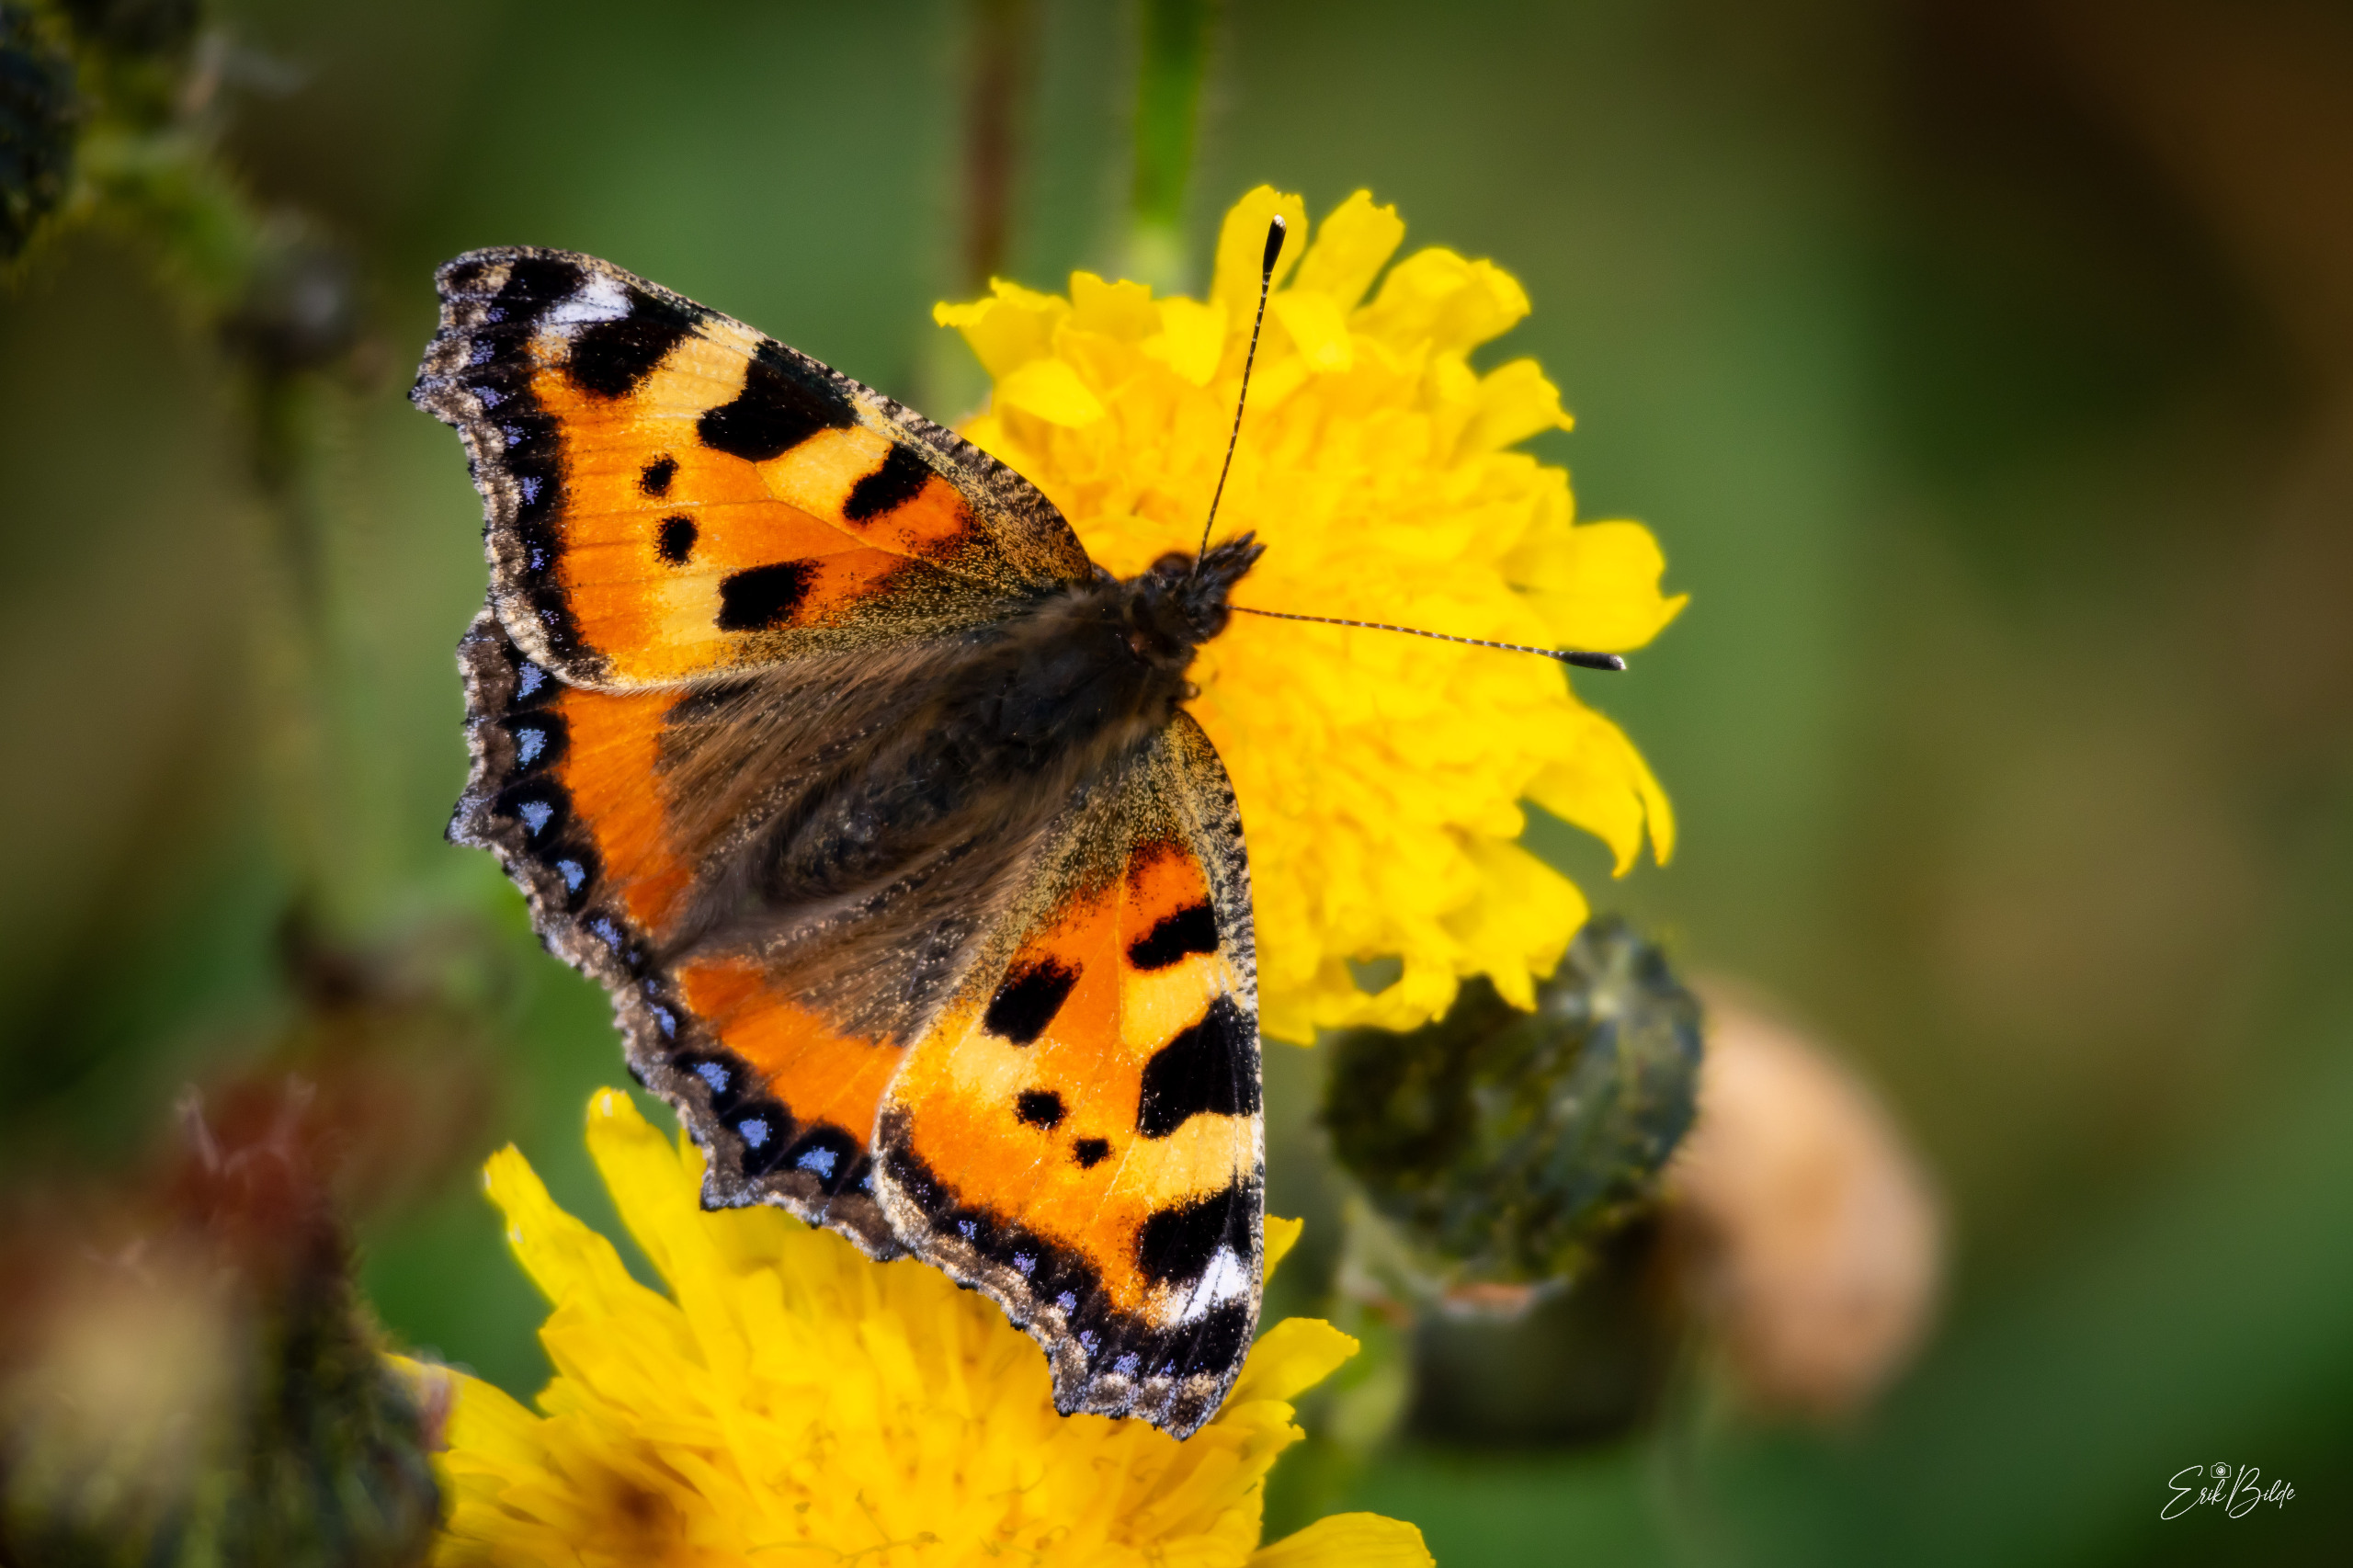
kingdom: Animalia
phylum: Arthropoda
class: Insecta
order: Lepidoptera
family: Nymphalidae
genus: Aglais
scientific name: Aglais urticae
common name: Nældens takvinge
